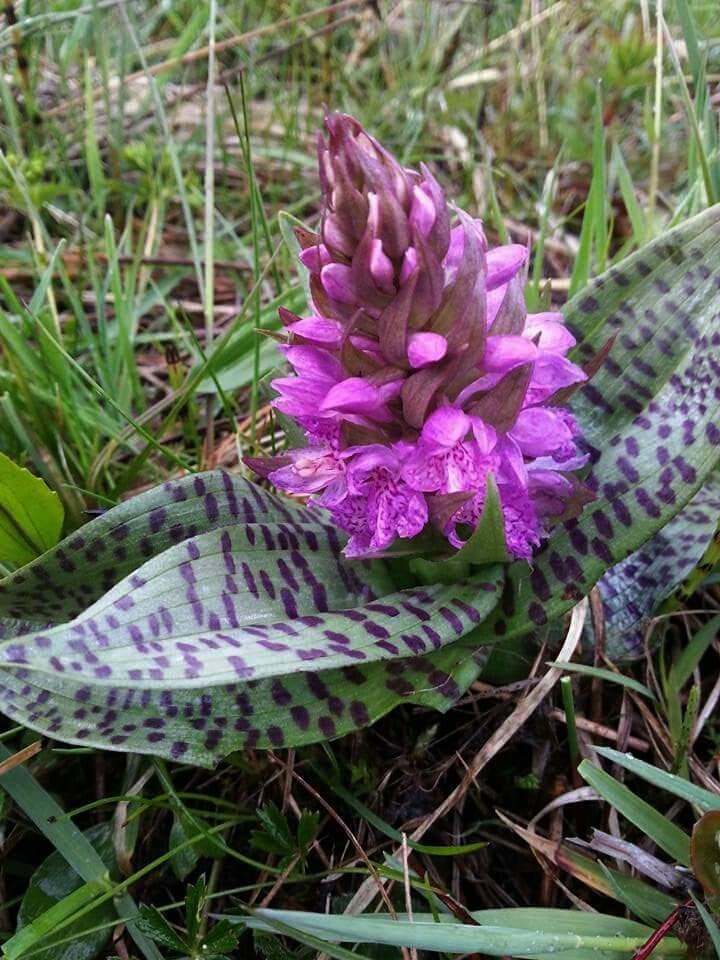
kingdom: Plantae
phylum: Tracheophyta
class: Liliopsida
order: Asparagales
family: Orchidaceae
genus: Dactylorhiza
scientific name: Dactylorhiza majalis
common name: Maj-gøgeurt
